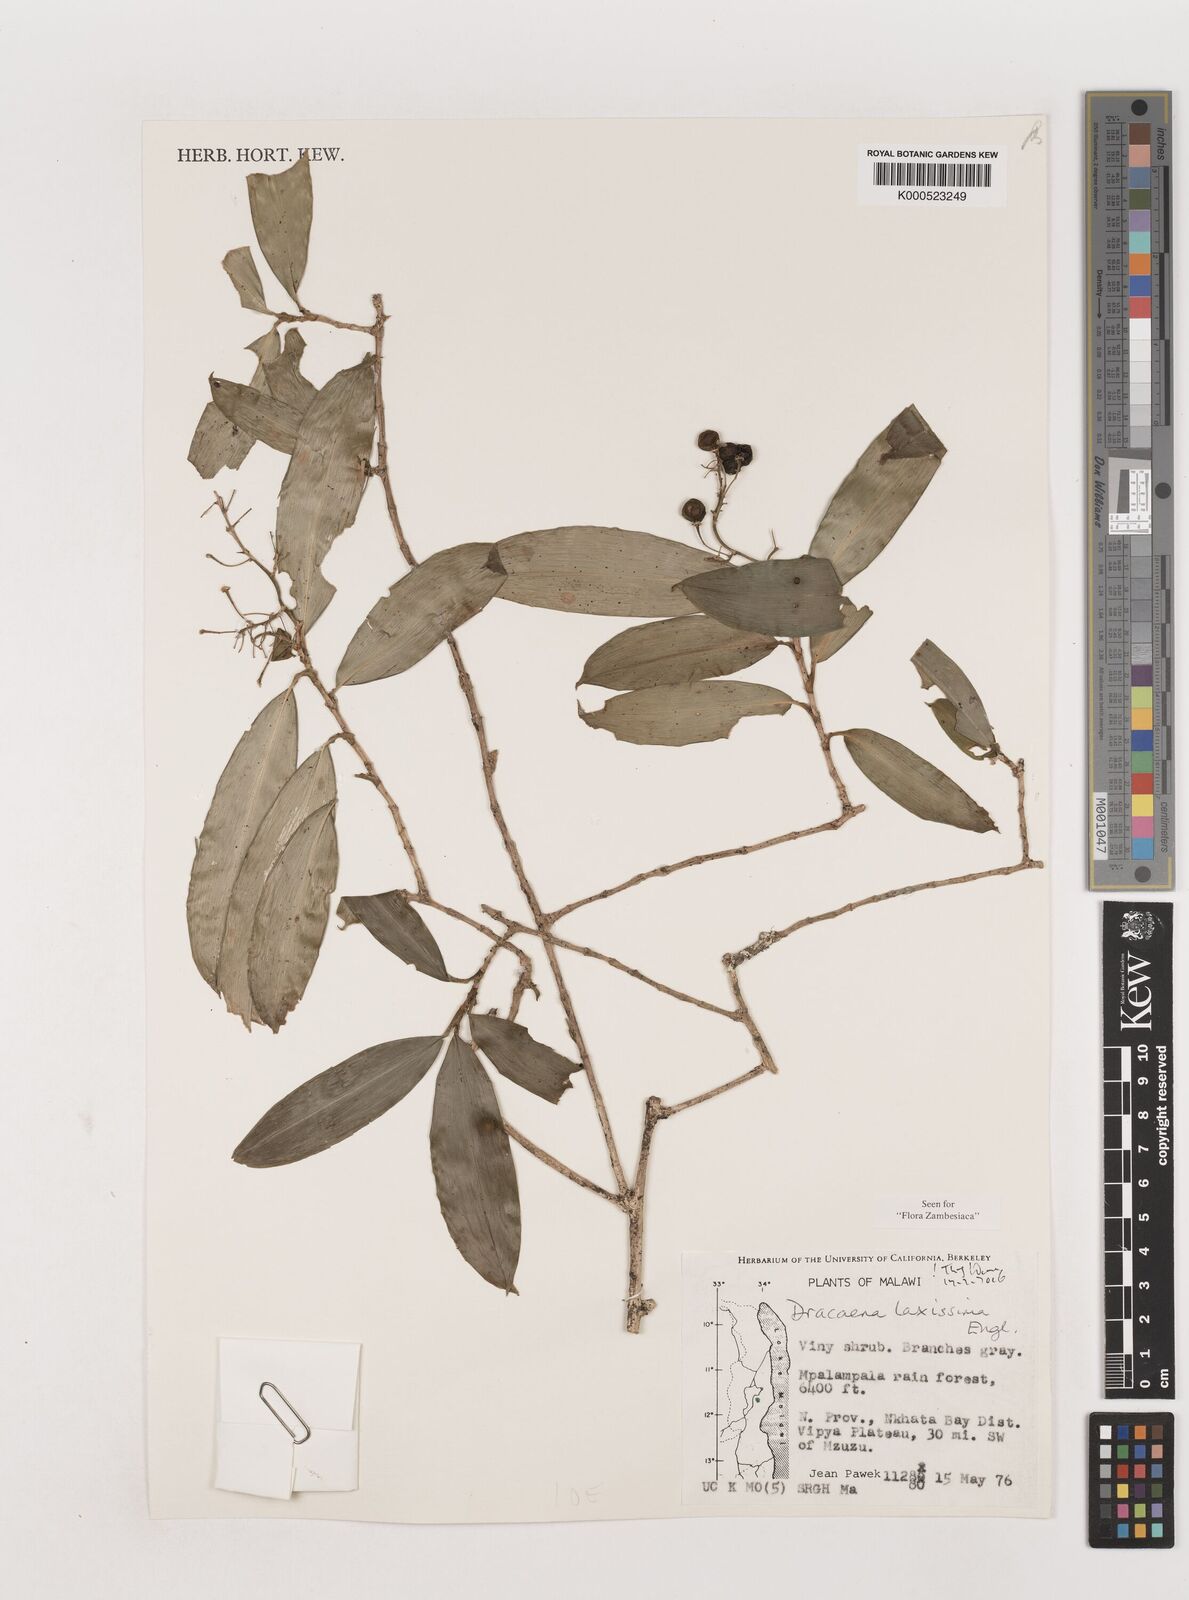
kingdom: Plantae
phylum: Tracheophyta
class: Liliopsida
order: Asparagales
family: Asparagaceae
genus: Dracaena
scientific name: Dracaena laxissima
